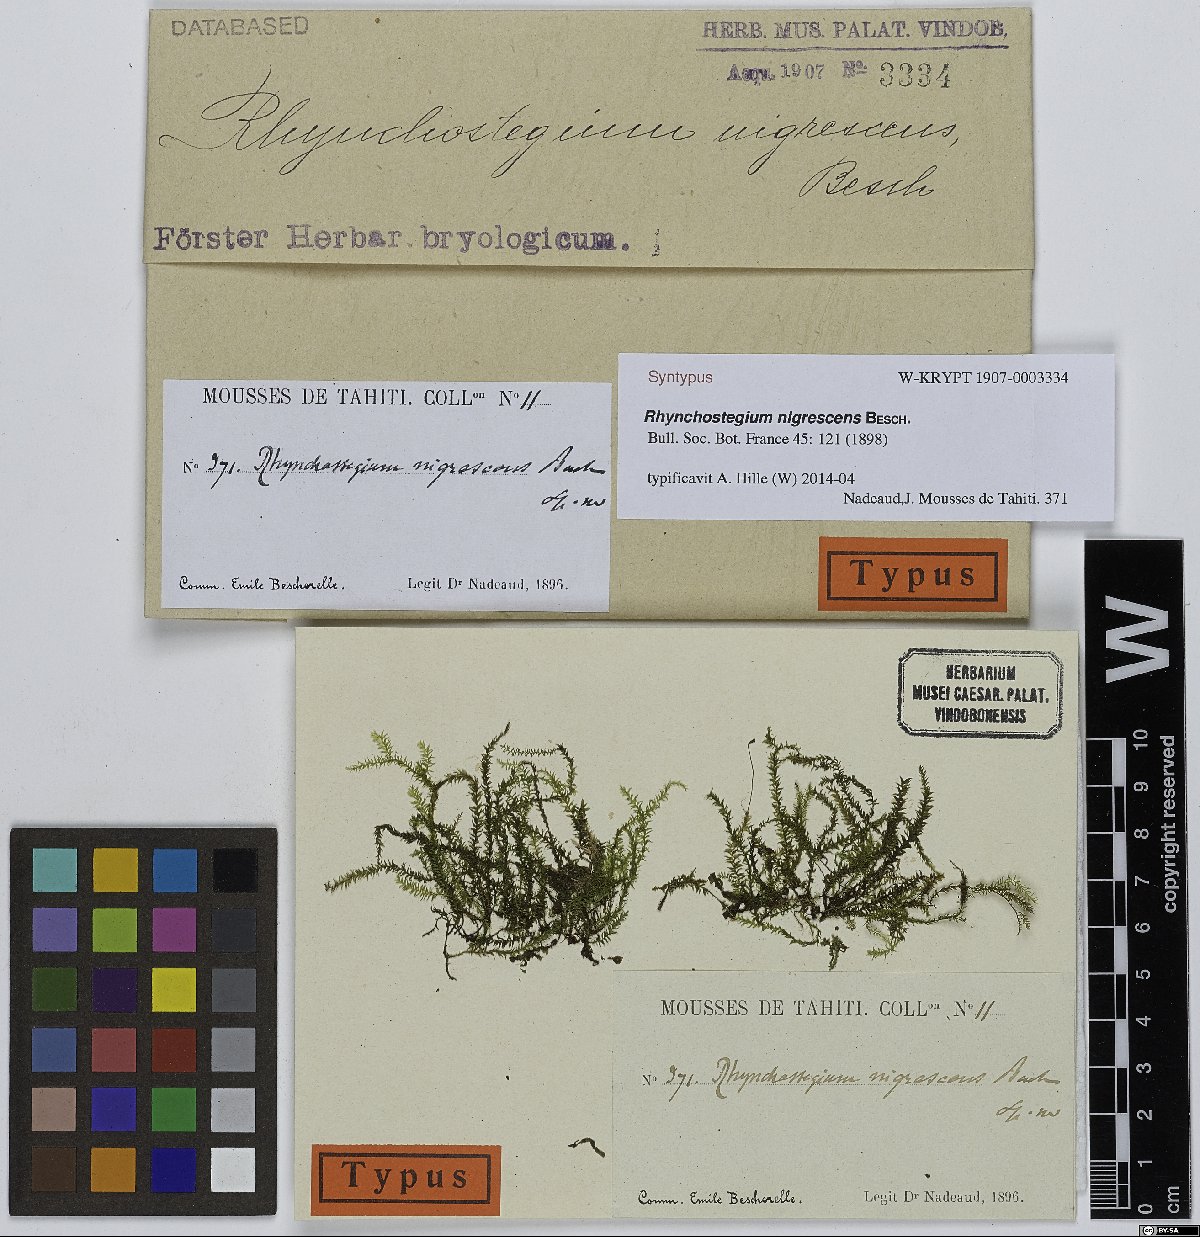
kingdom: Plantae
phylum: Bryophyta
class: Bryopsida
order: Hypnales
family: Brachytheciaceae
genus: Rhynchostegium
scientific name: Rhynchostegium nigrescens
